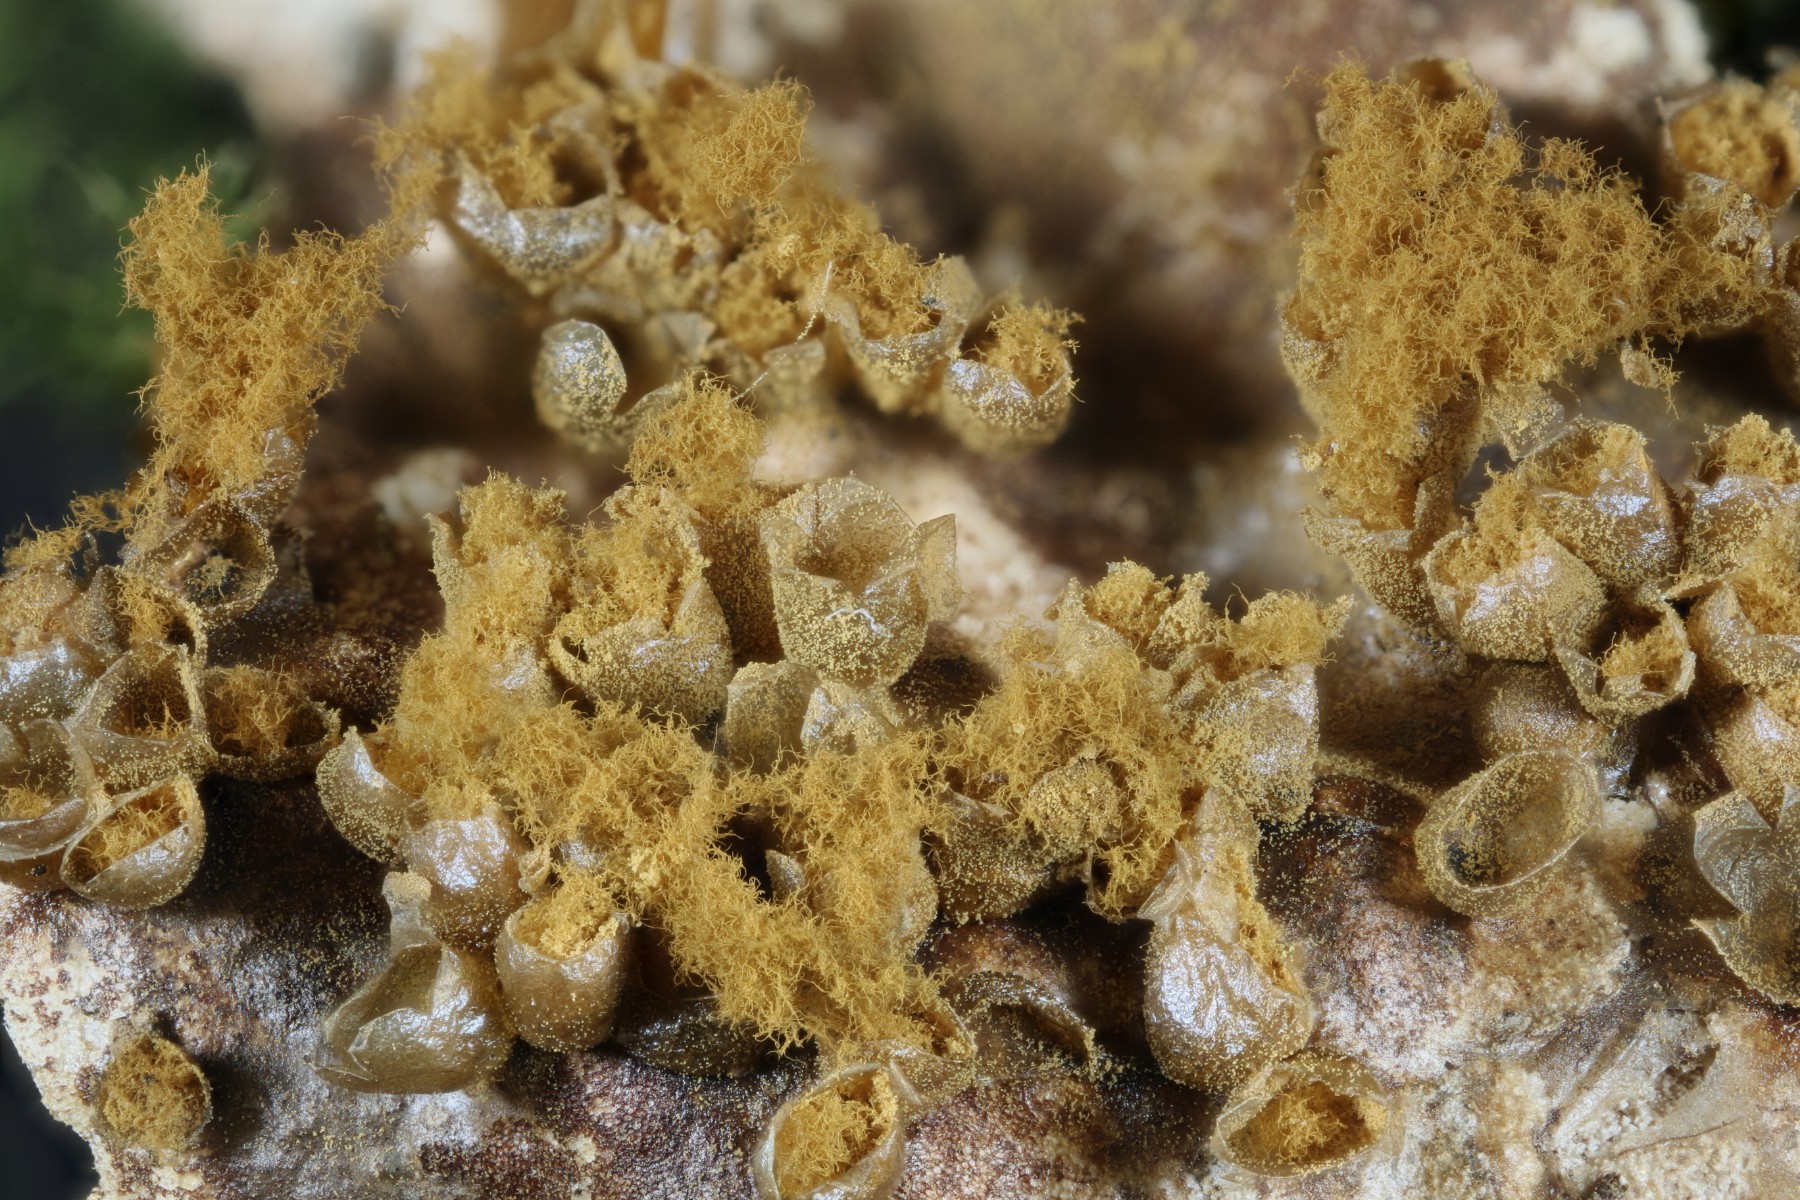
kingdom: Protozoa
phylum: Mycetozoa
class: Myxomycetes
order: Trichiales
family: Trichiaceae
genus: Trichia
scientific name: Trichia varia
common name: foranderlig hårbold
